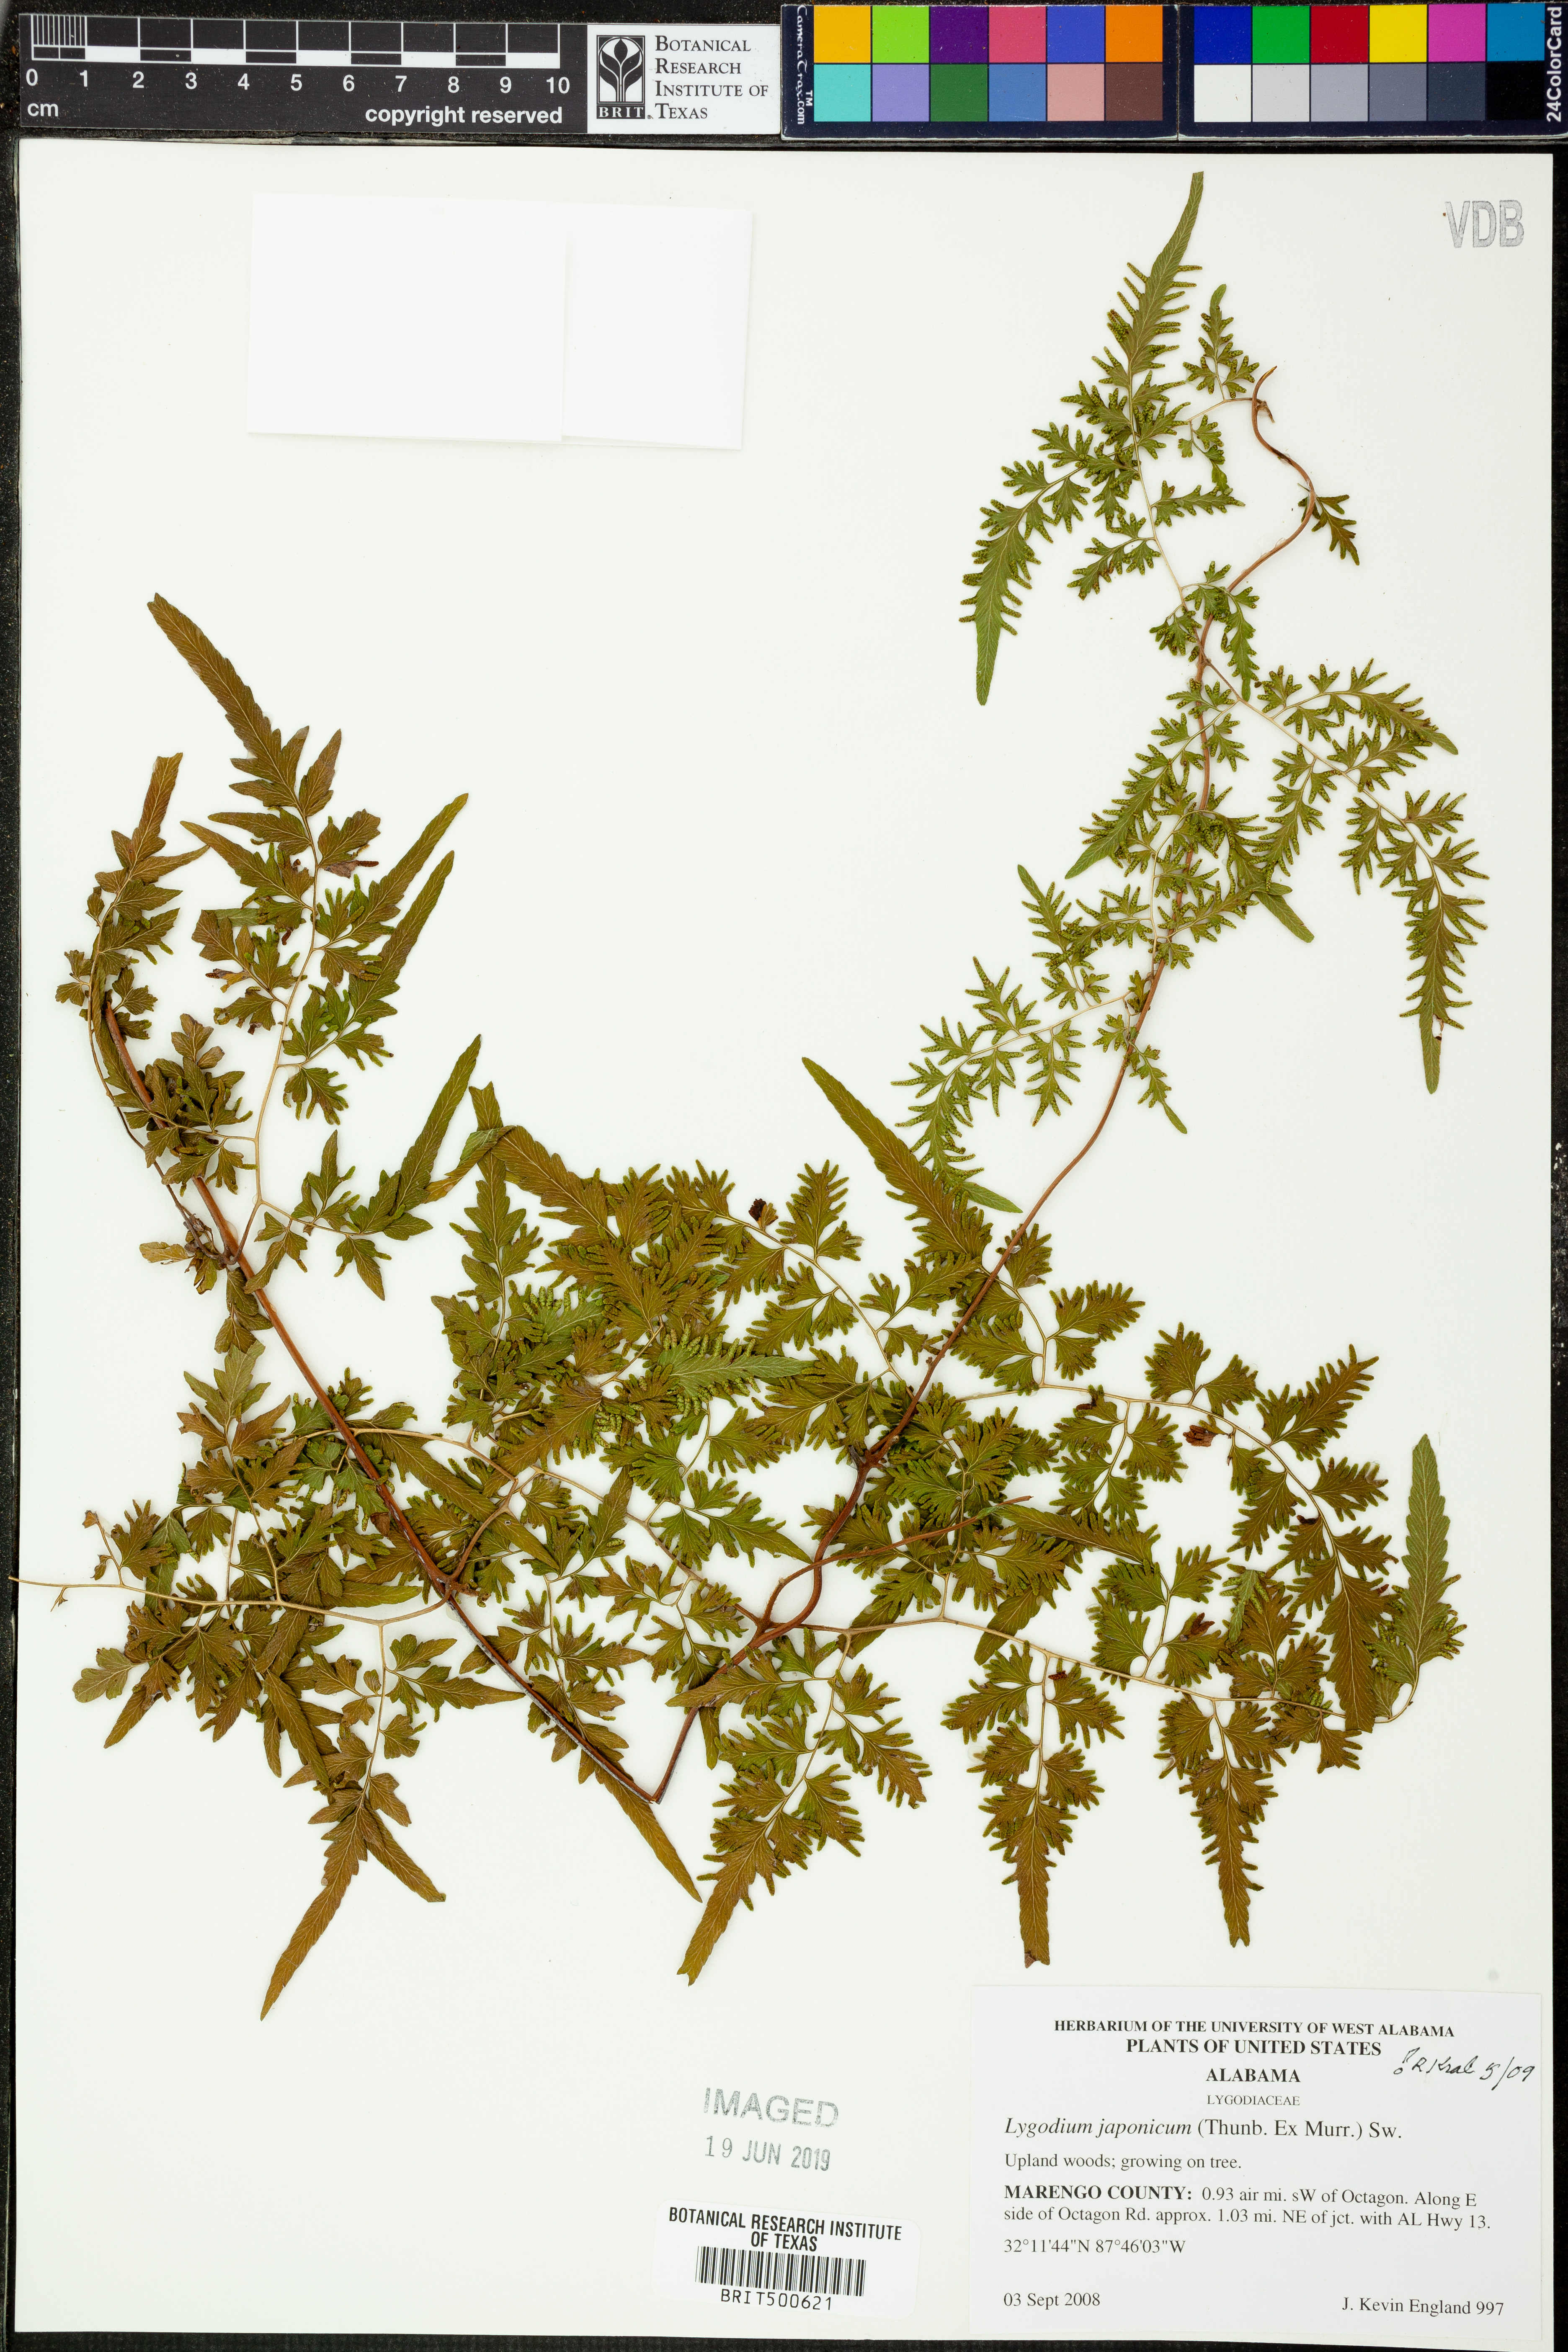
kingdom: Plantae
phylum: Tracheophyta
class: Polypodiopsida
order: Schizaeales
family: Lygodiaceae
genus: Lygodium
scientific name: Lygodium japonicum
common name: Japanese climbing fern
